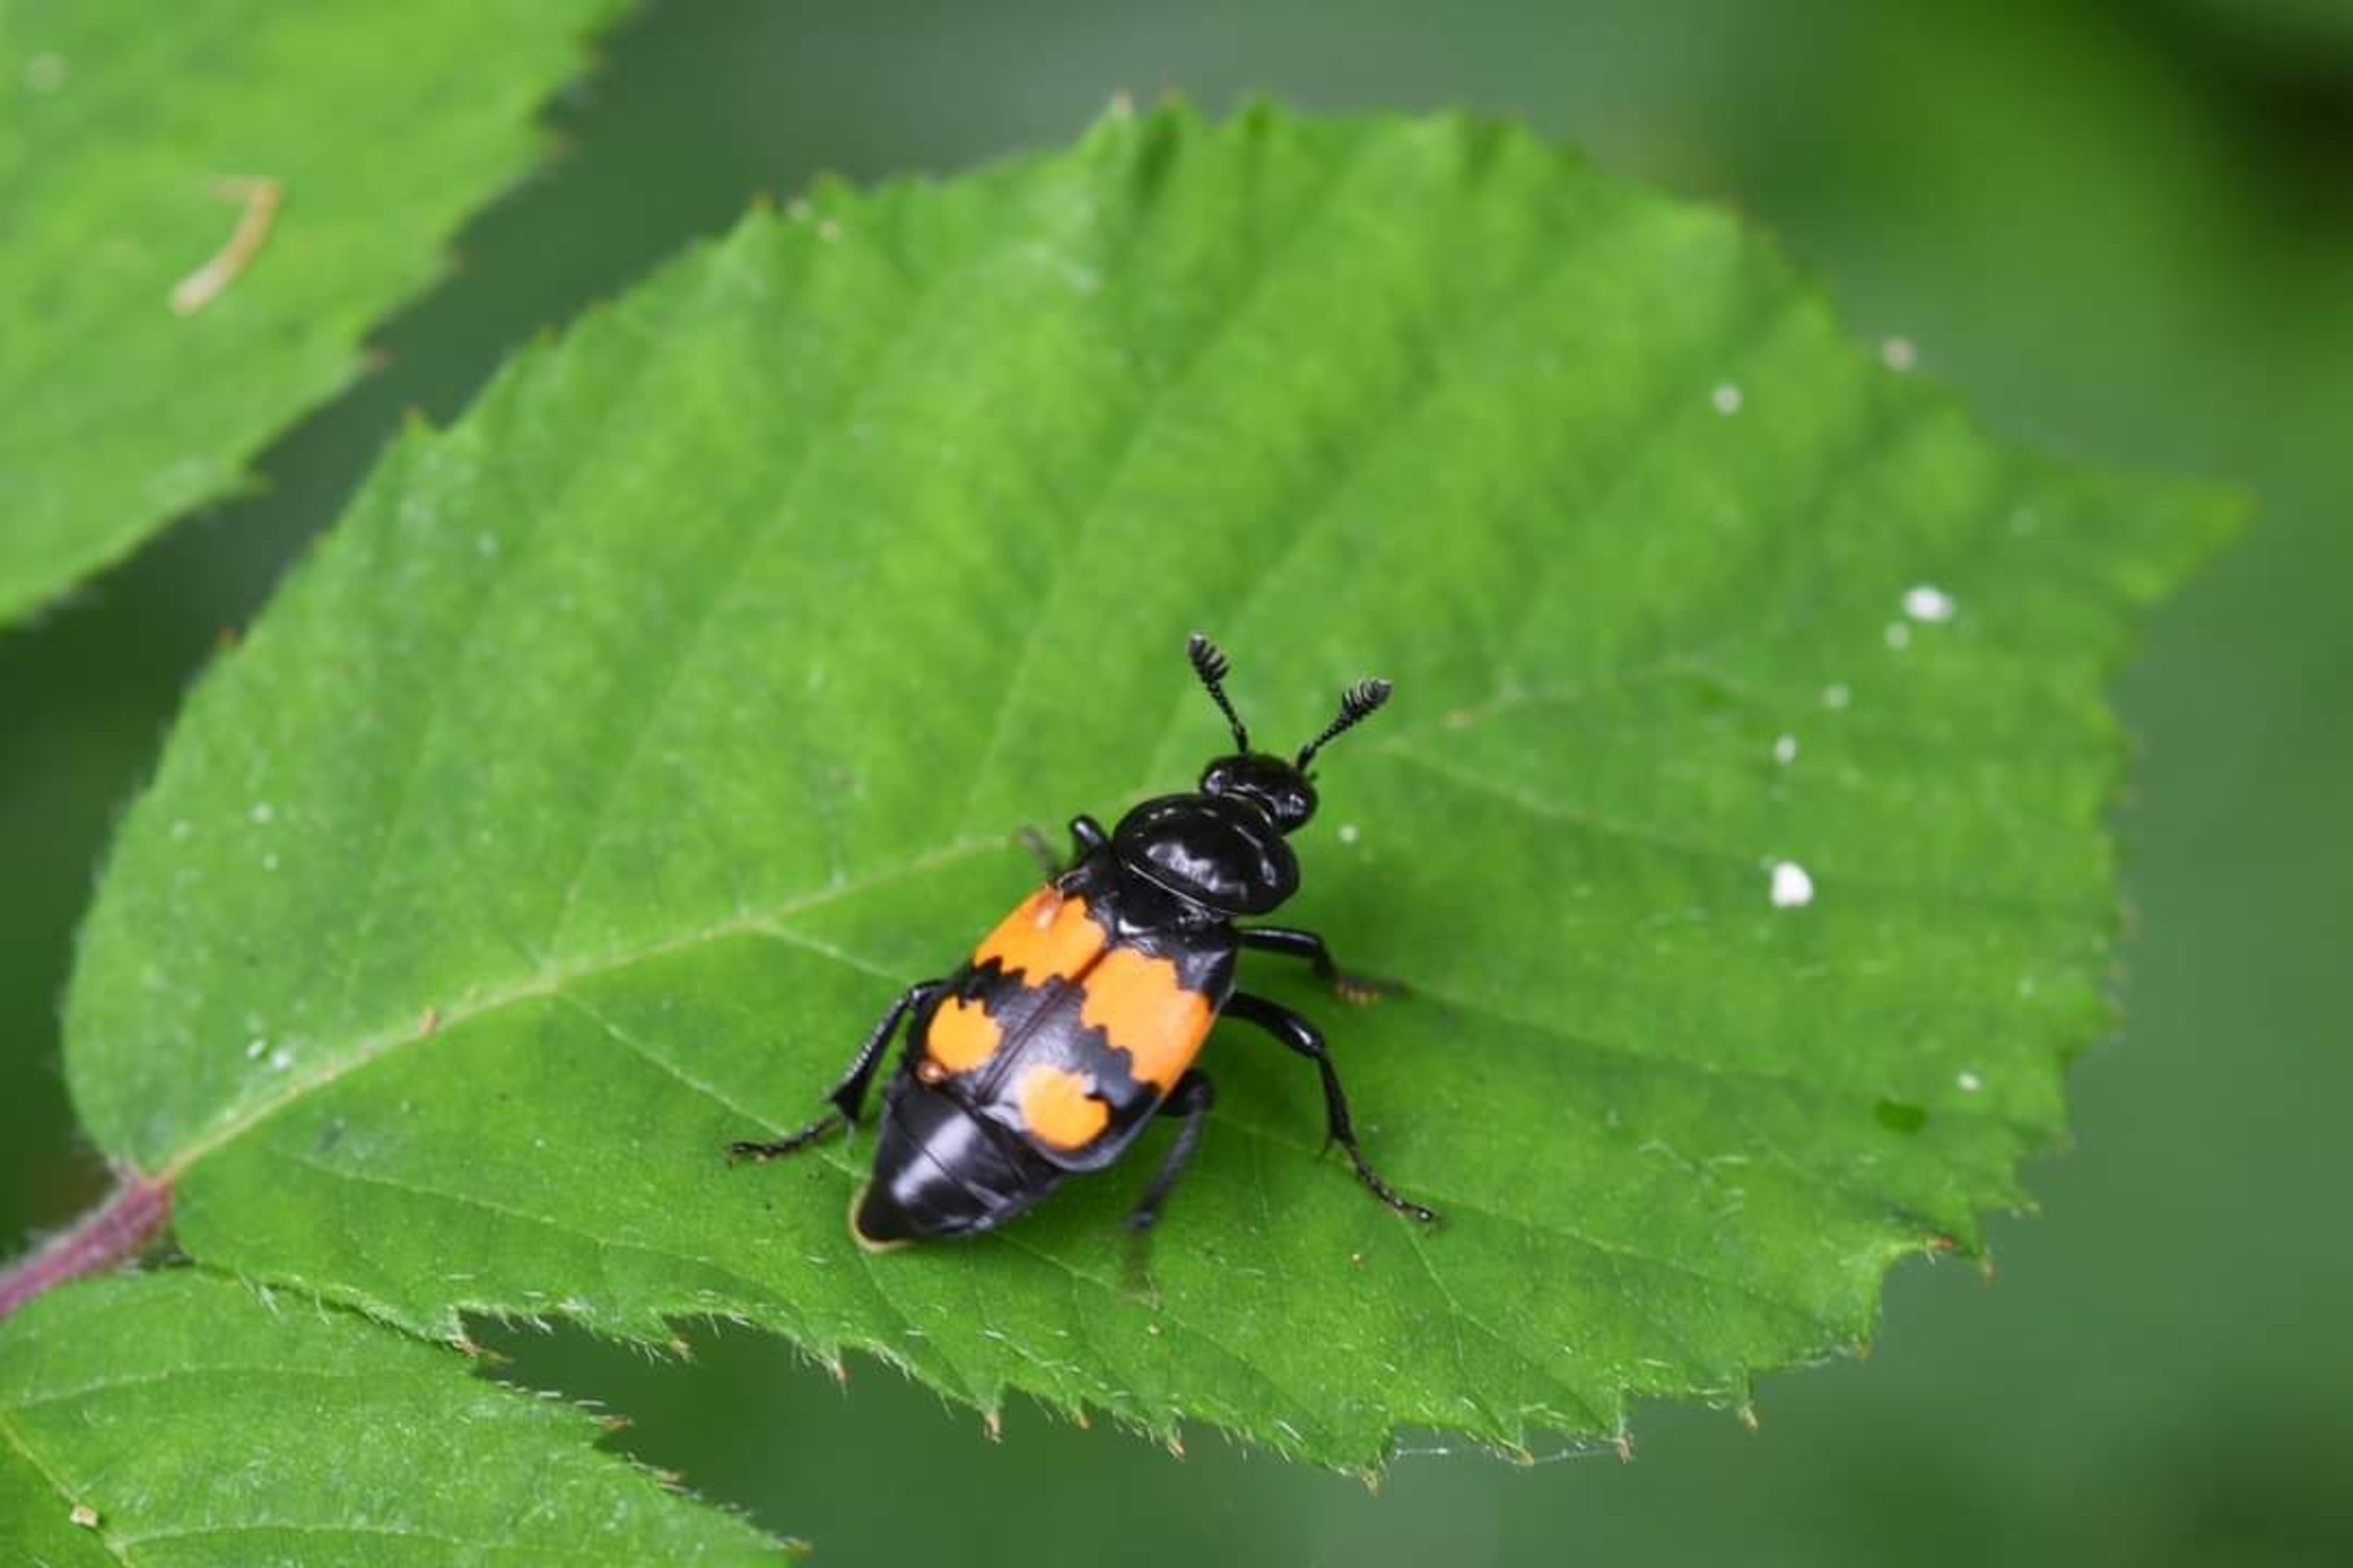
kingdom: Animalia
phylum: Arthropoda
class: Insecta
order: Coleoptera
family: Staphylinidae
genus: Nicrophorus
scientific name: Nicrophorus vespilloides
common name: Sortkøllet ådselgraver
